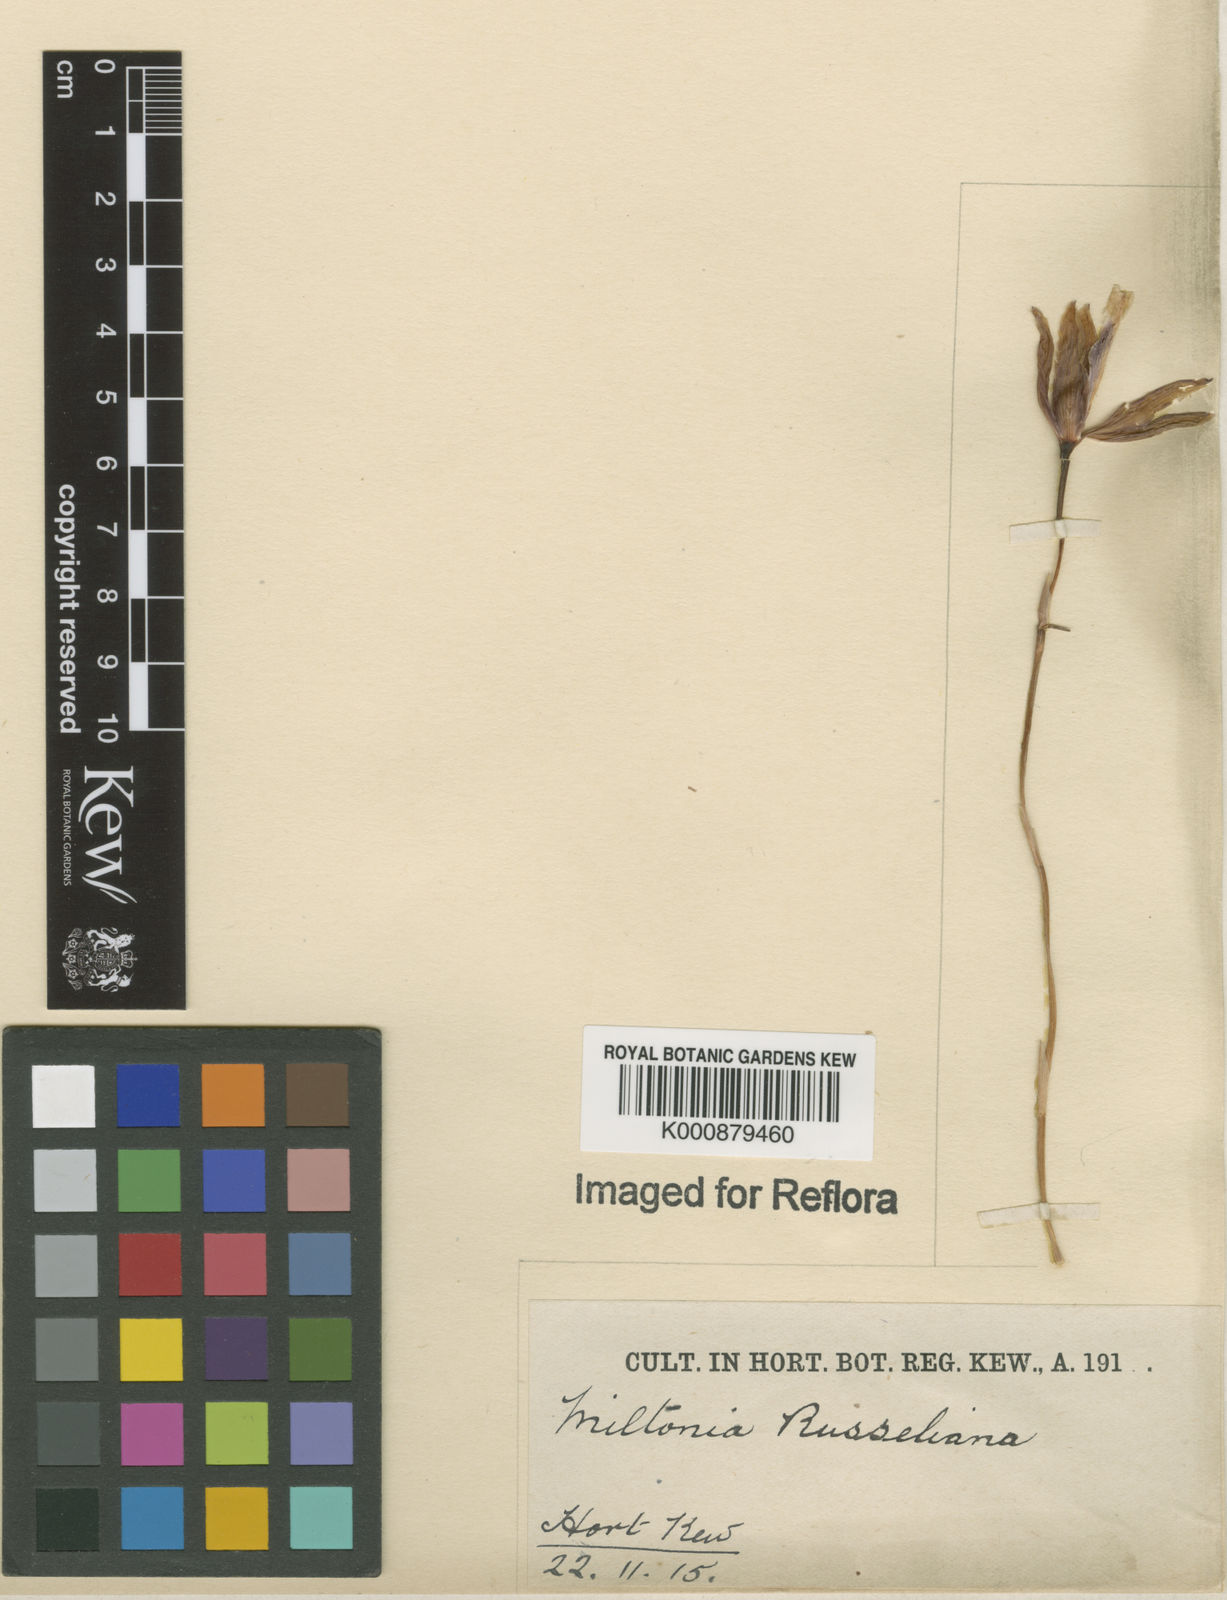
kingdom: Plantae
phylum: Tracheophyta
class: Liliopsida
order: Asparagales
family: Orchidaceae
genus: Miltonia
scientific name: Miltonia russelliana
